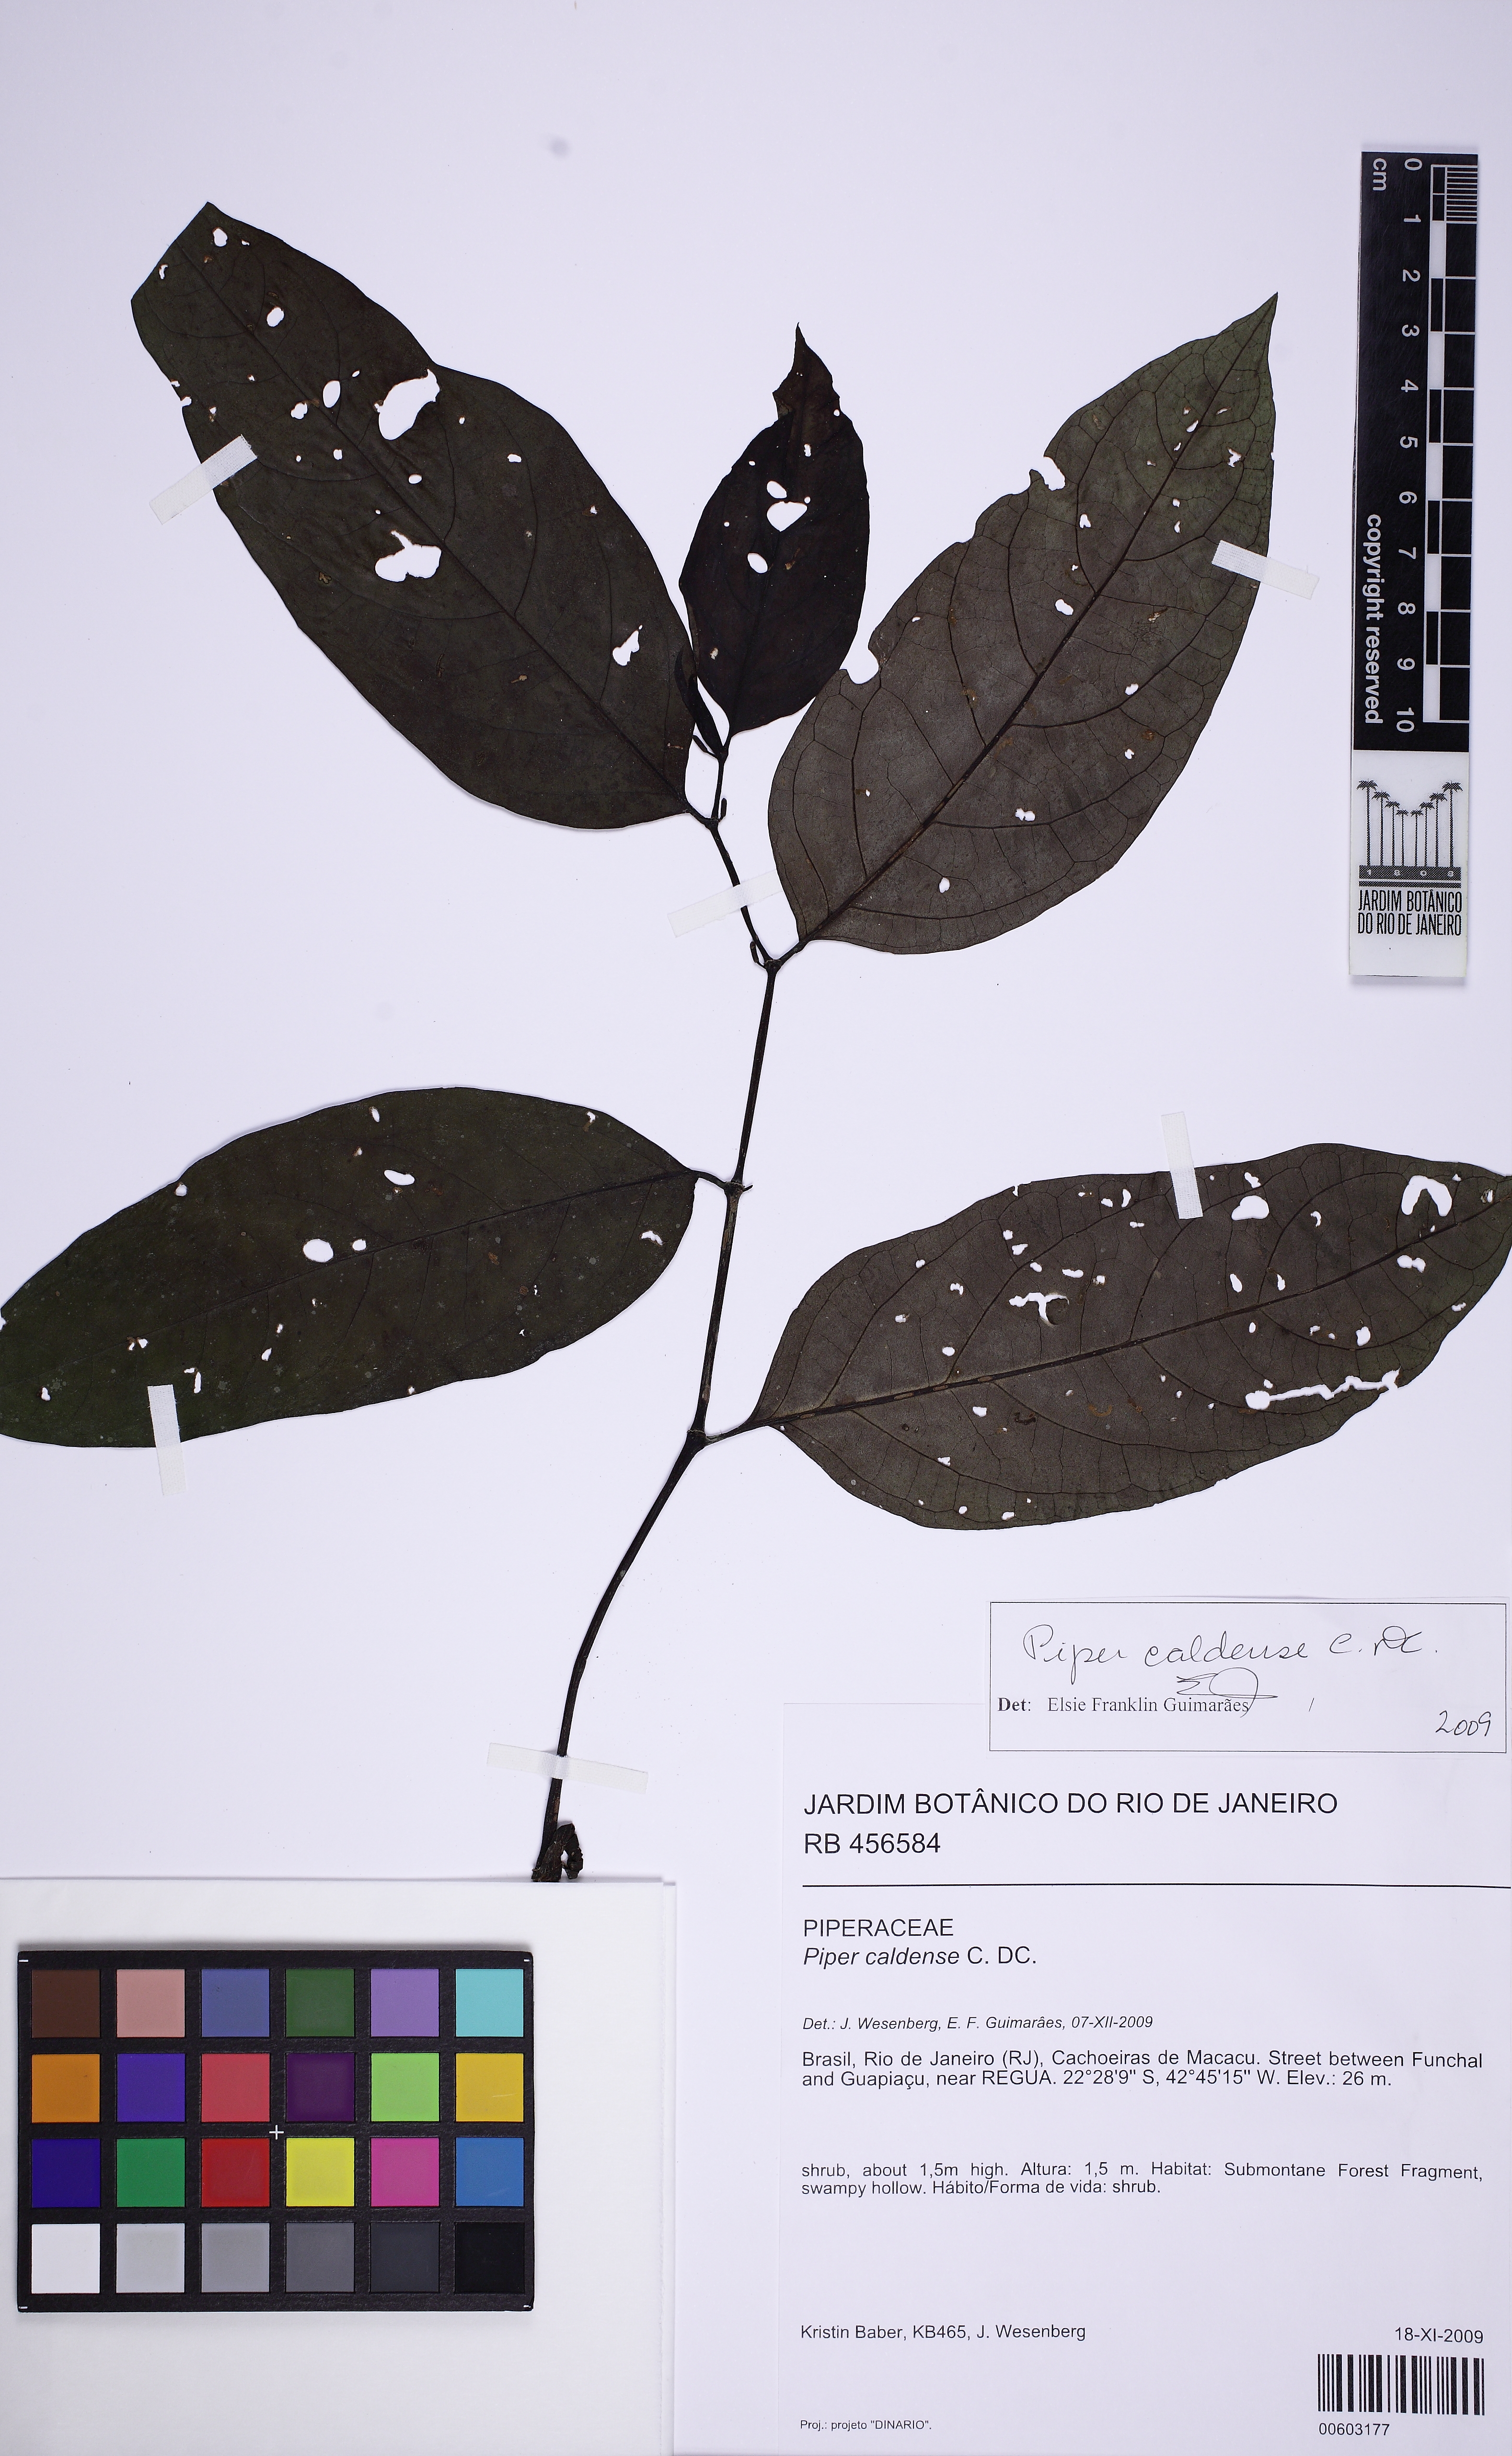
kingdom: Plantae
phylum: Tracheophyta
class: Magnoliopsida
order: Piperales
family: Piperaceae
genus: Piper
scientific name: Piper caldense
